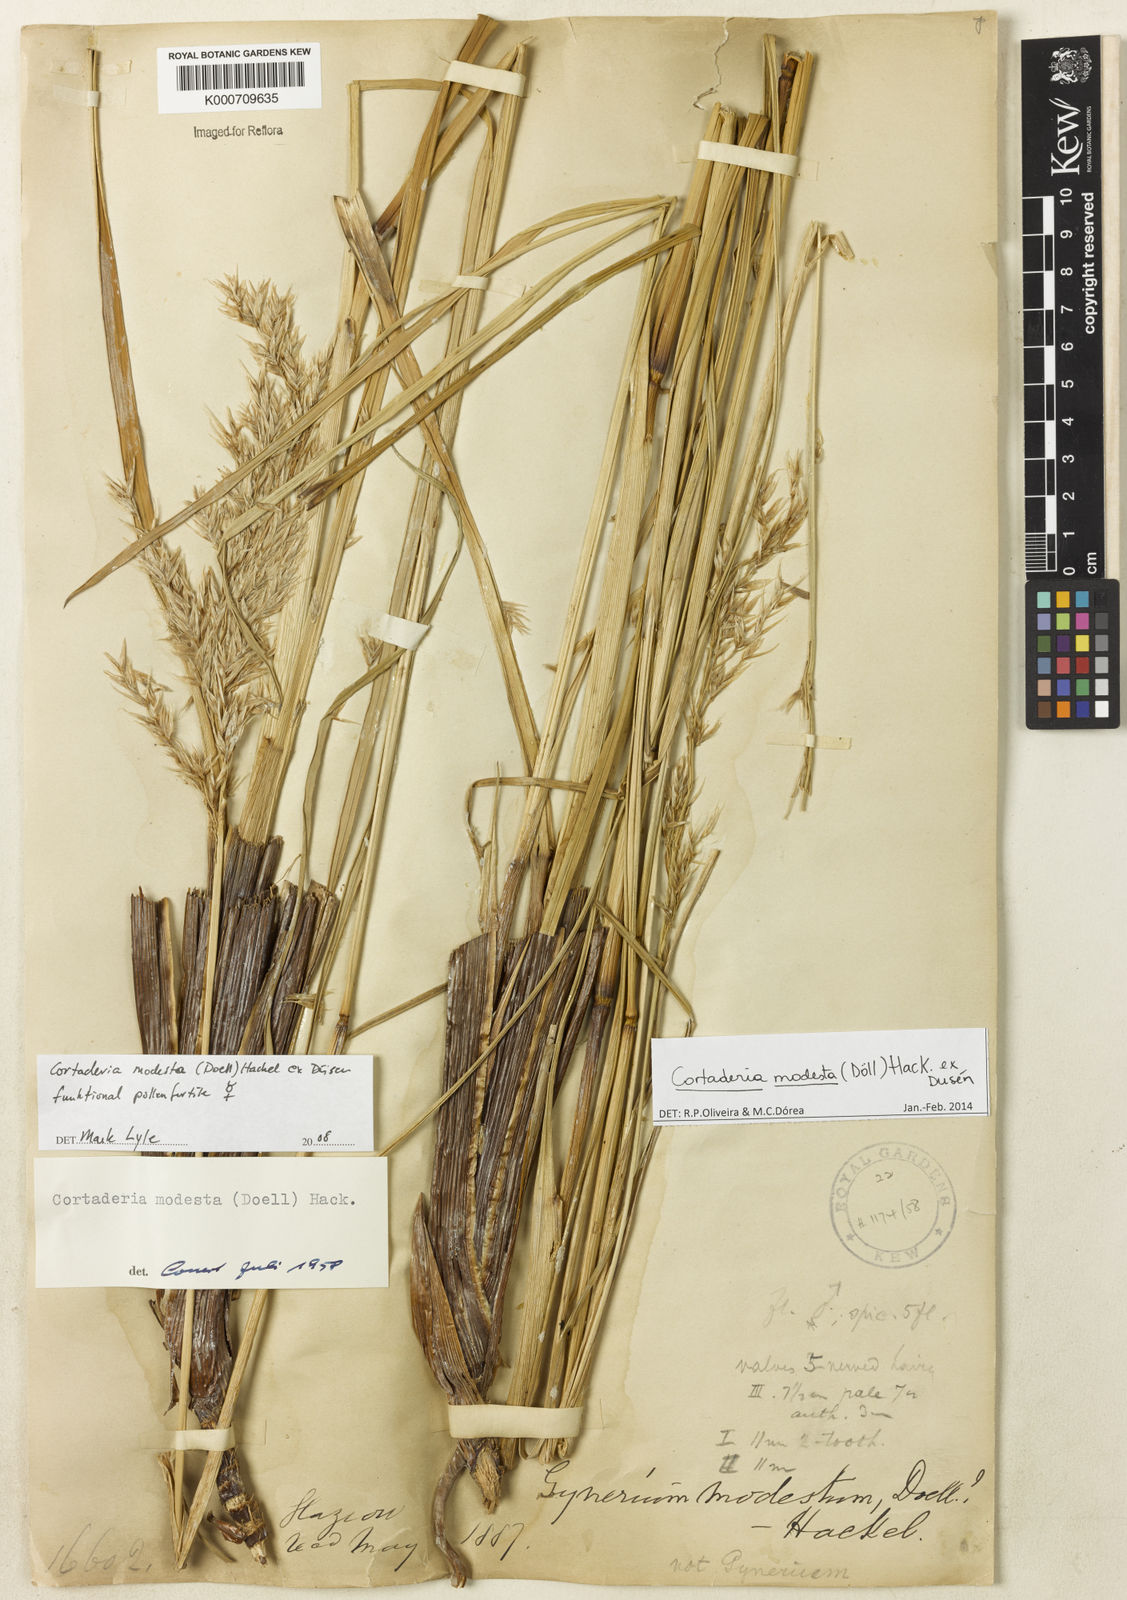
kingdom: Plantae
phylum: Tracheophyta
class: Liliopsida
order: Poales
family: Poaceae
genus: Cortaderia
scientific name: Cortaderia
